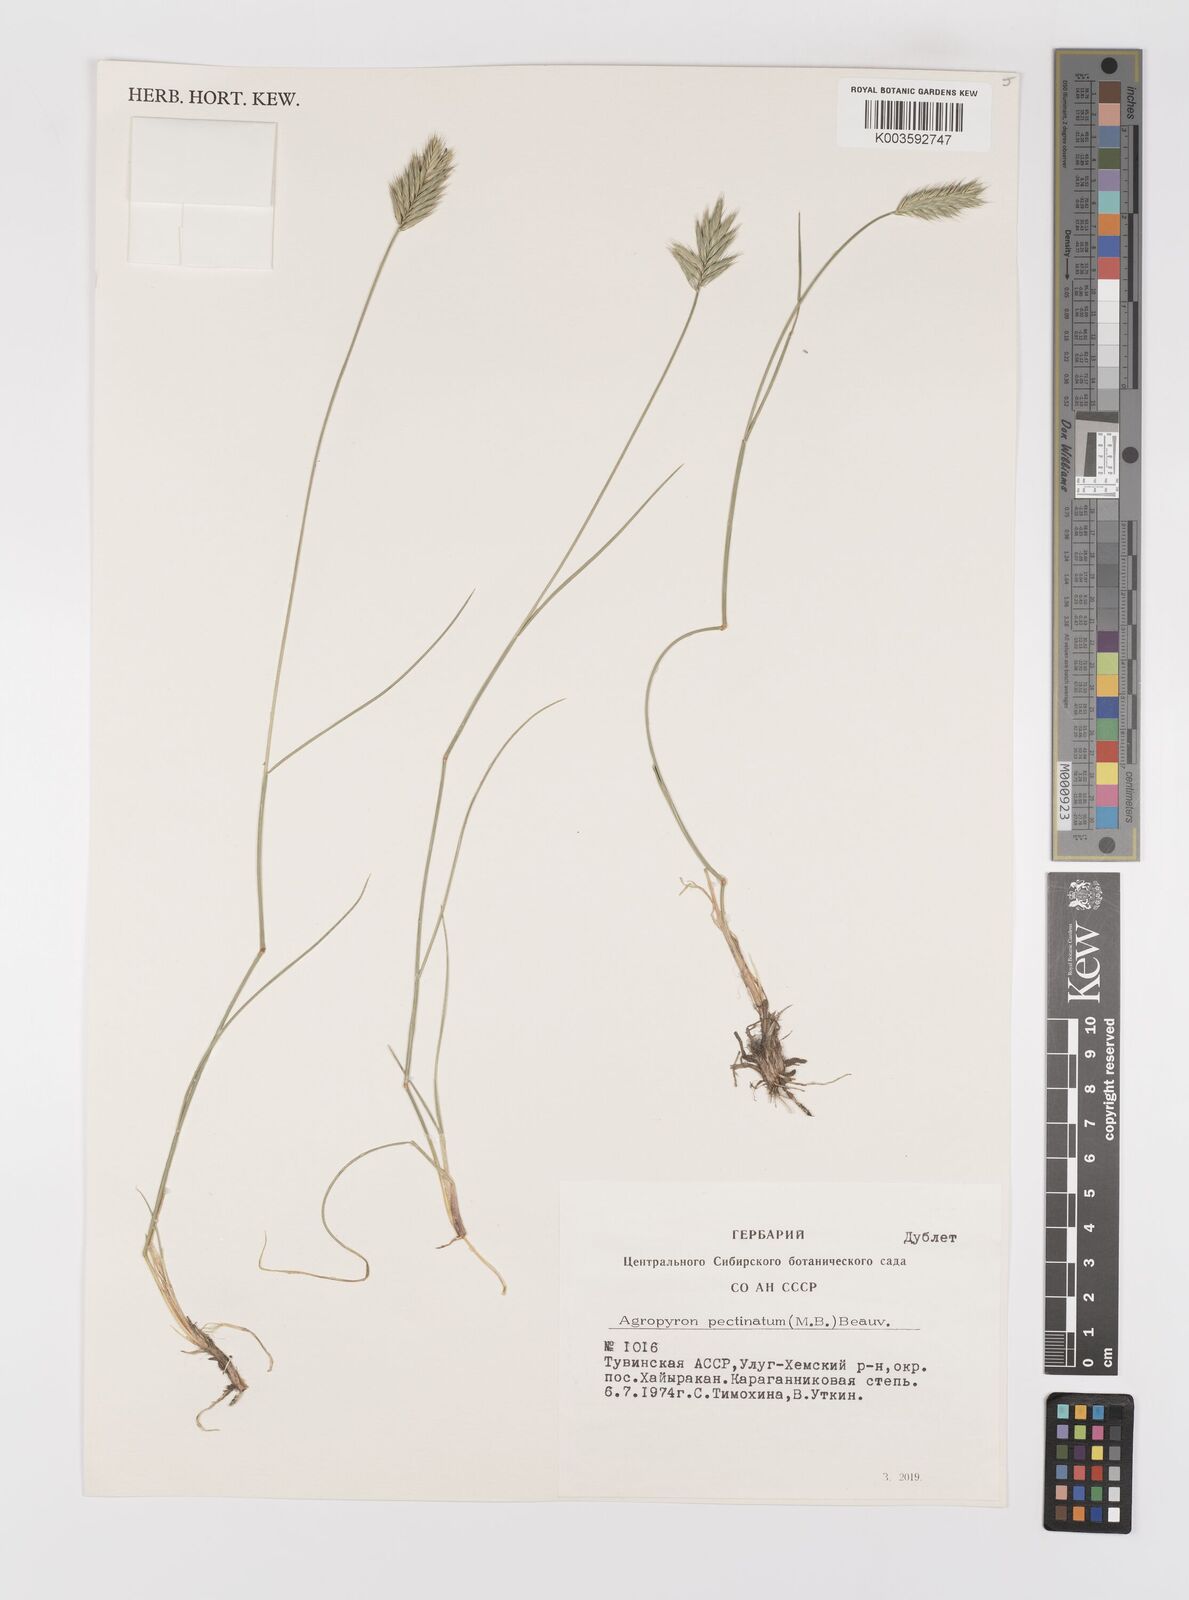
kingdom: Plantae
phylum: Tracheophyta
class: Liliopsida
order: Poales
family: Poaceae
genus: Agropyron
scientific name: Agropyron cristatum
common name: Crested wheatgrass
